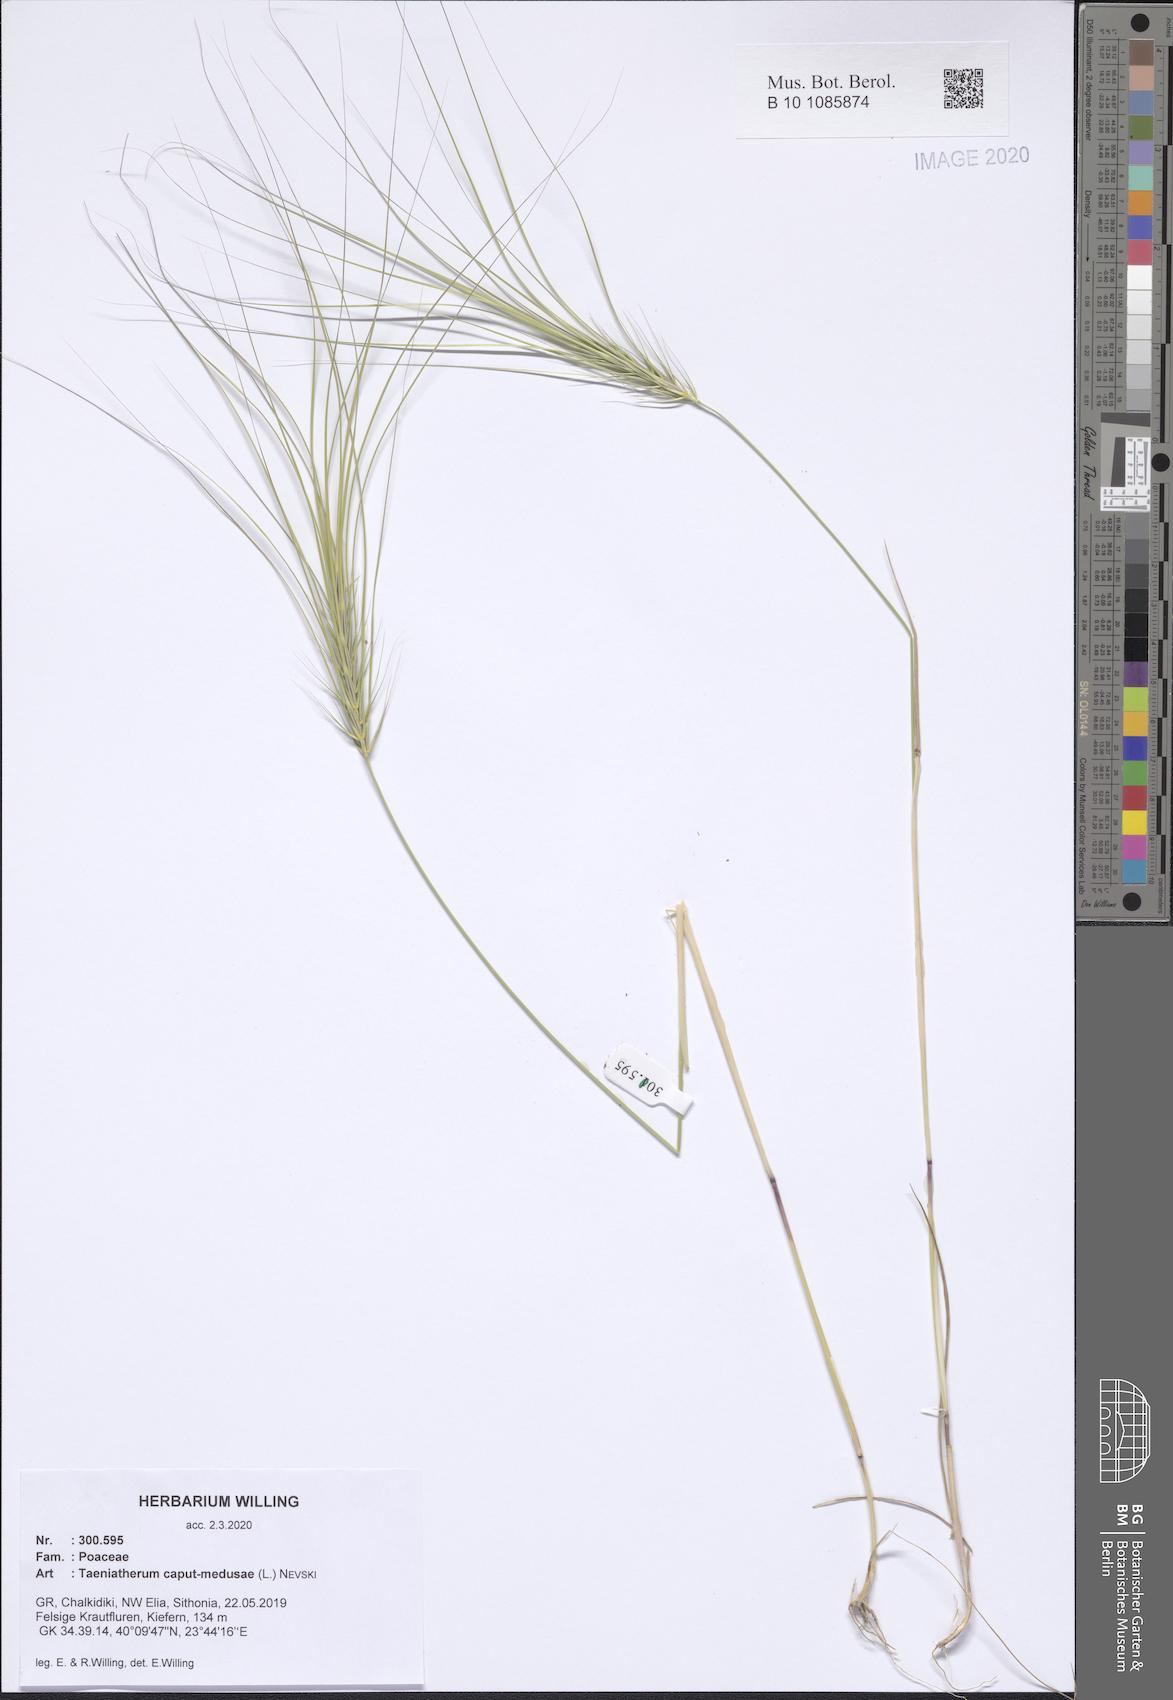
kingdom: Plantae
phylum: Tracheophyta
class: Liliopsida
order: Poales
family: Poaceae
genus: Taeniatherum
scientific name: Taeniatherum caput-medusae
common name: Medusahead
